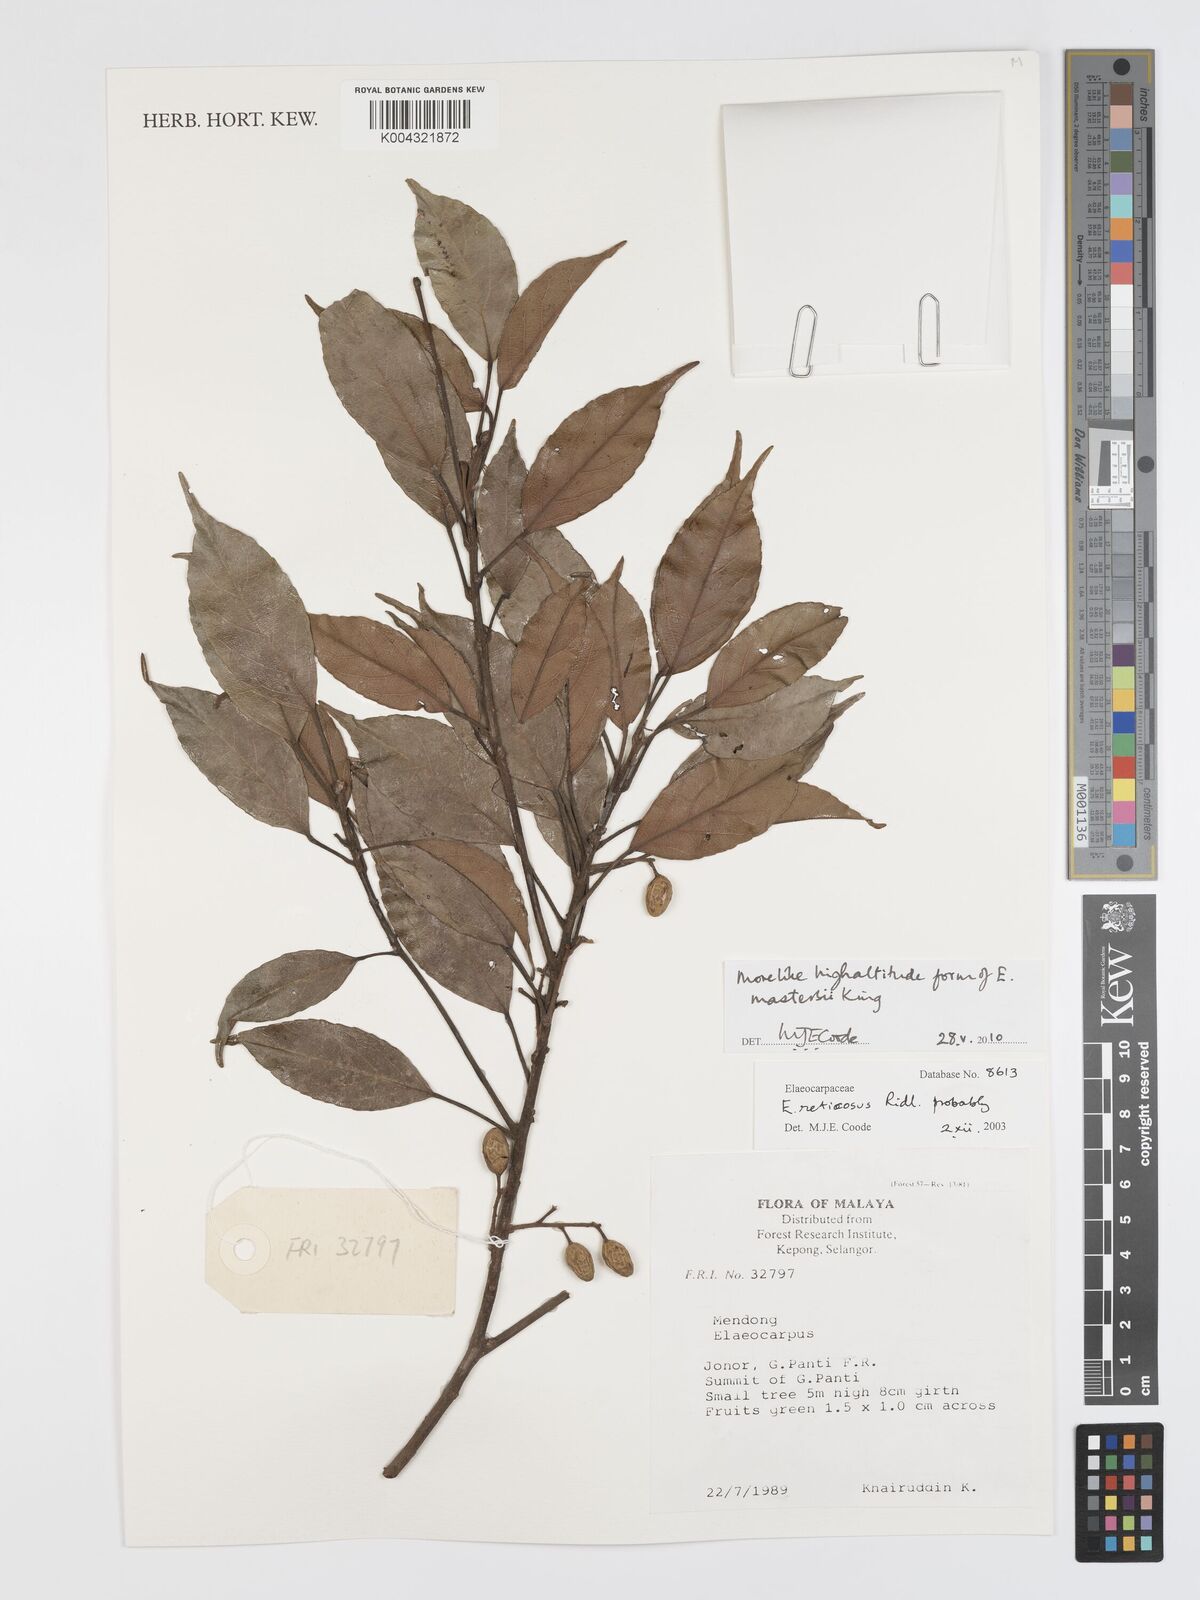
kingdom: Plantae
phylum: Tracheophyta
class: Magnoliopsida
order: Oxalidales
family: Elaeocarpaceae
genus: Elaeocarpus
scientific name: Elaeocarpus mastersii
